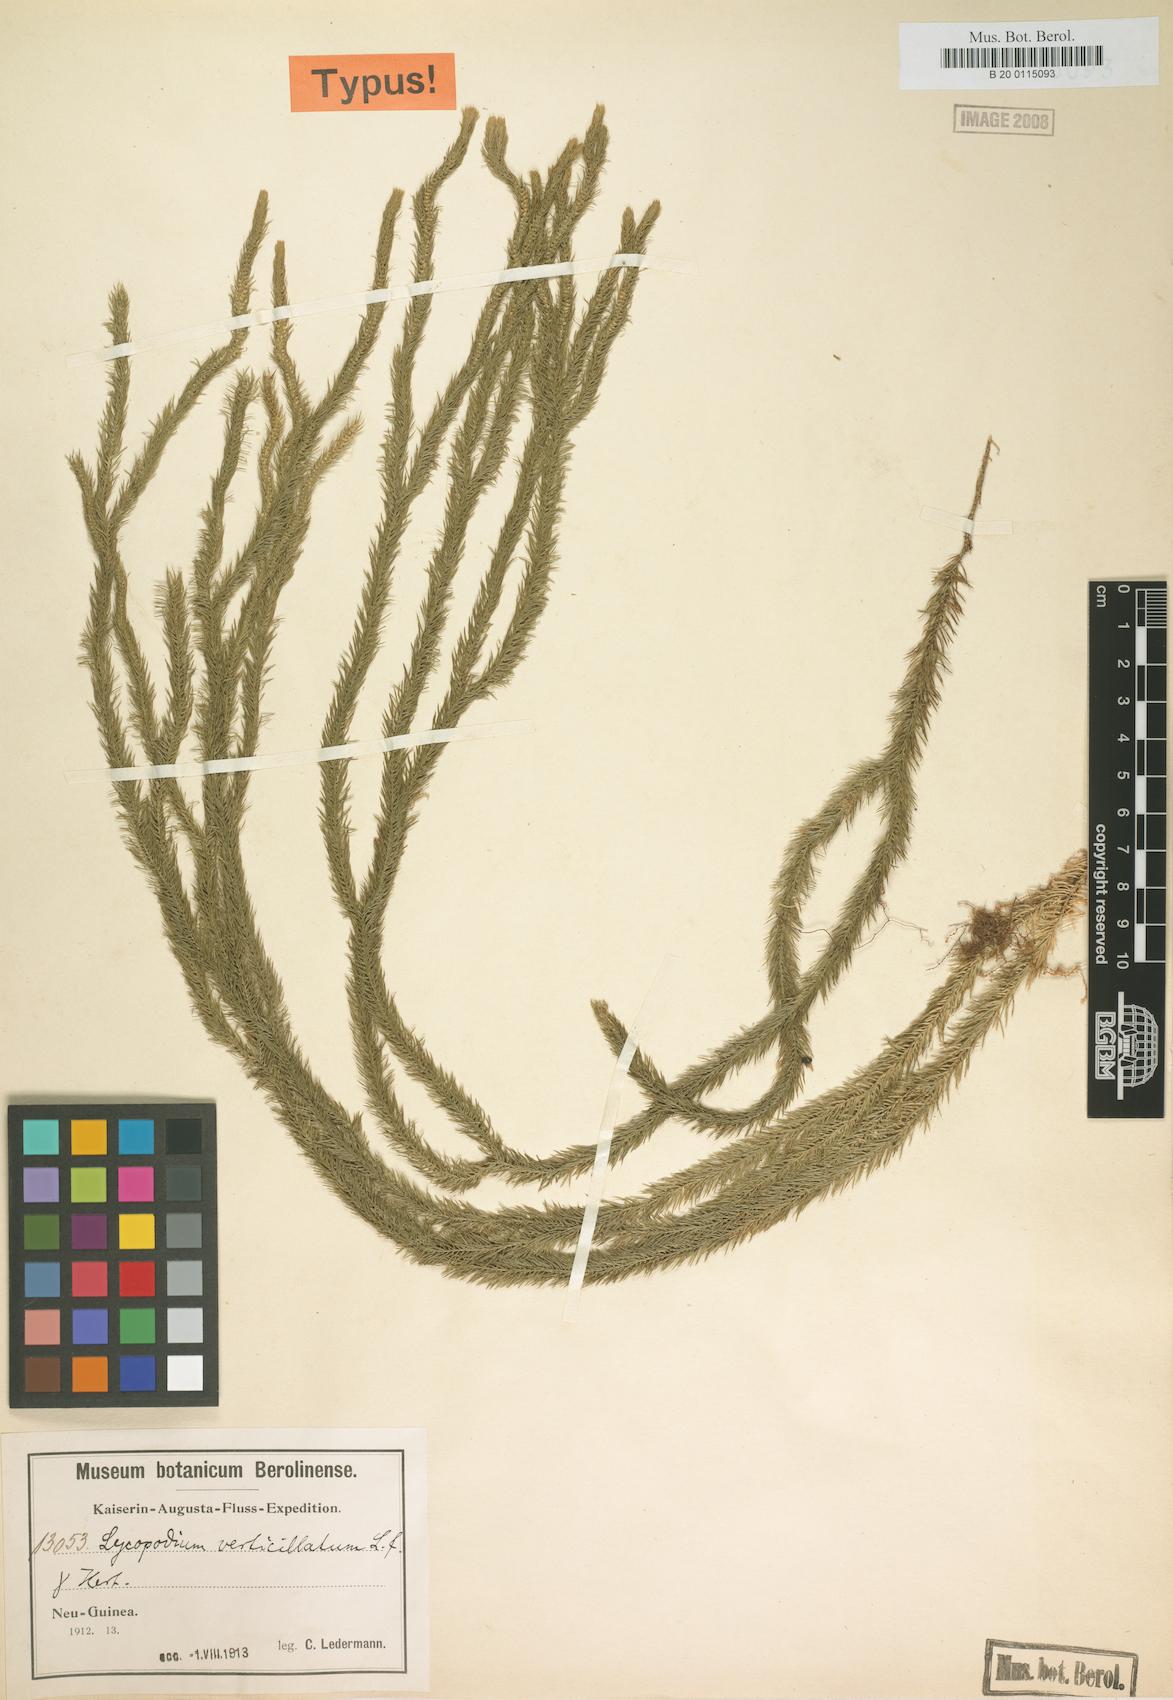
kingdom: Plantae
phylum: Tracheophyta
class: Lycopodiopsida
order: Lycopodiales
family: Lycopodiaceae
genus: Phlegmariurus
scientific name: Phlegmariurus verticillatus
